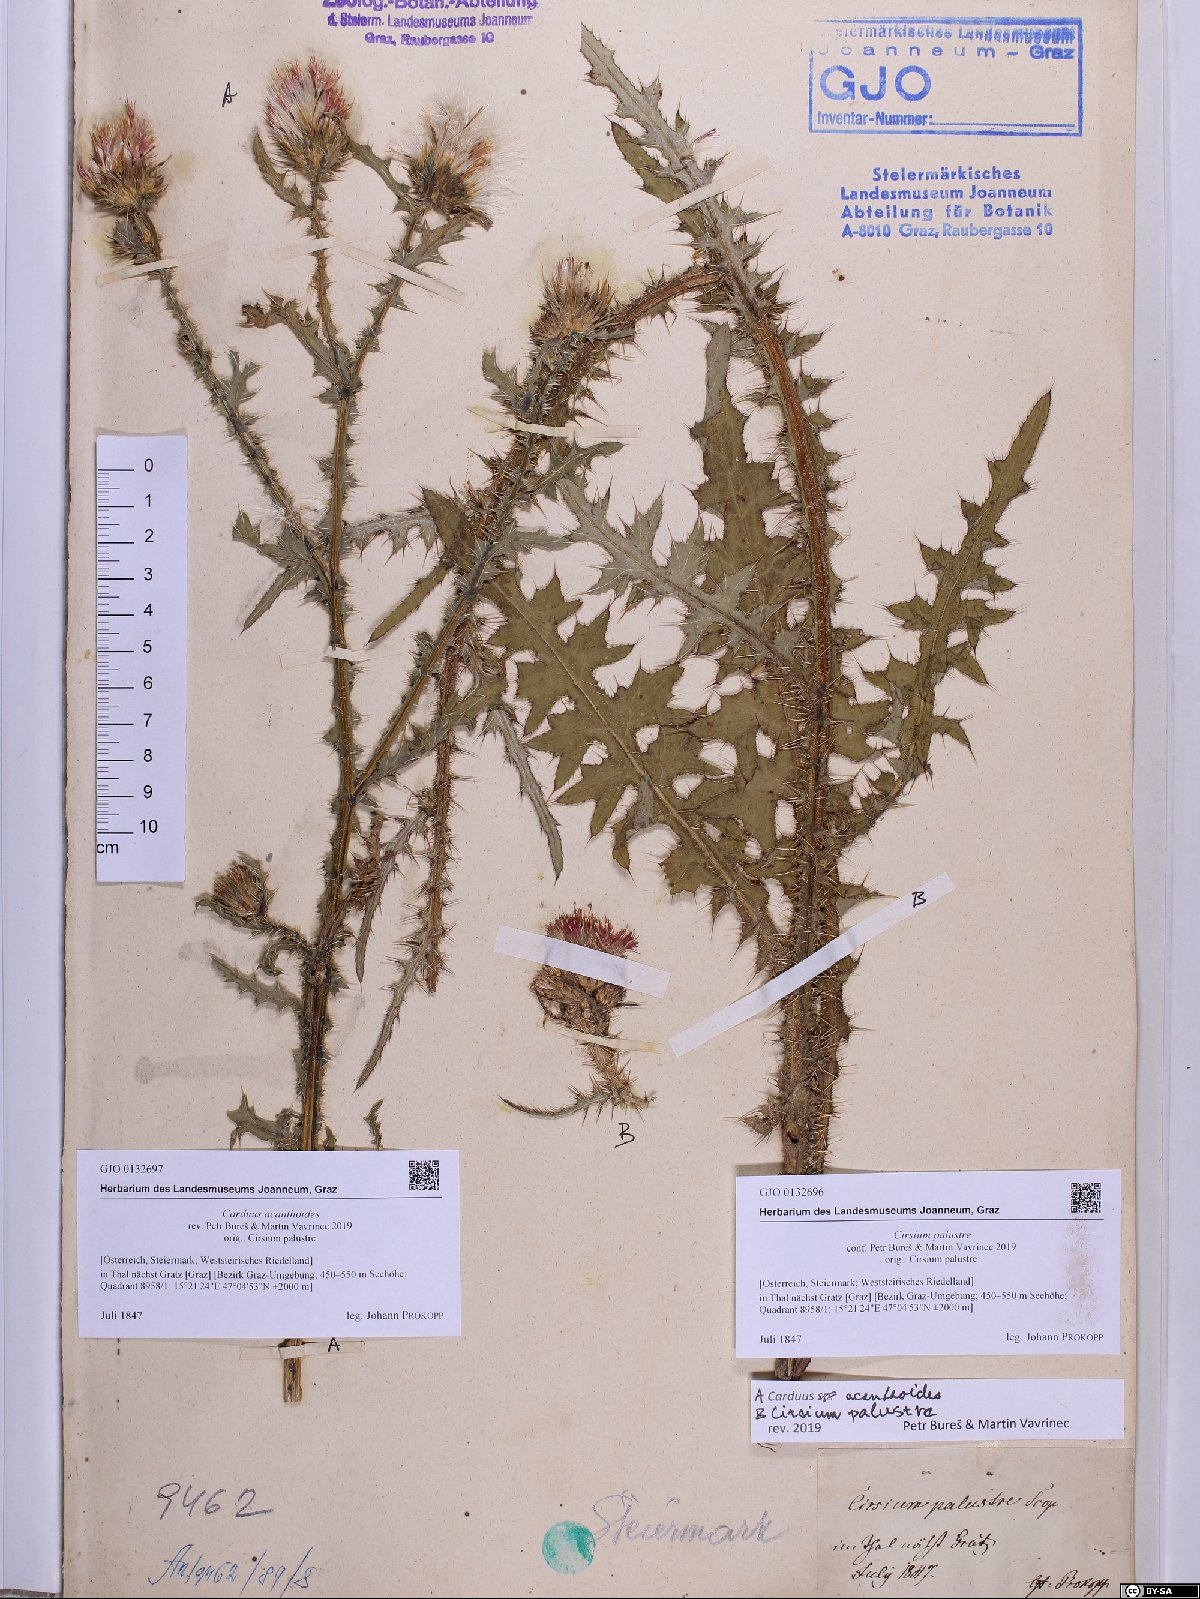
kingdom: Plantae
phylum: Tracheophyta
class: Magnoliopsida
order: Asterales
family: Asteraceae
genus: Carduus
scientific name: Carduus acanthoides
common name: Plumeless thistle
